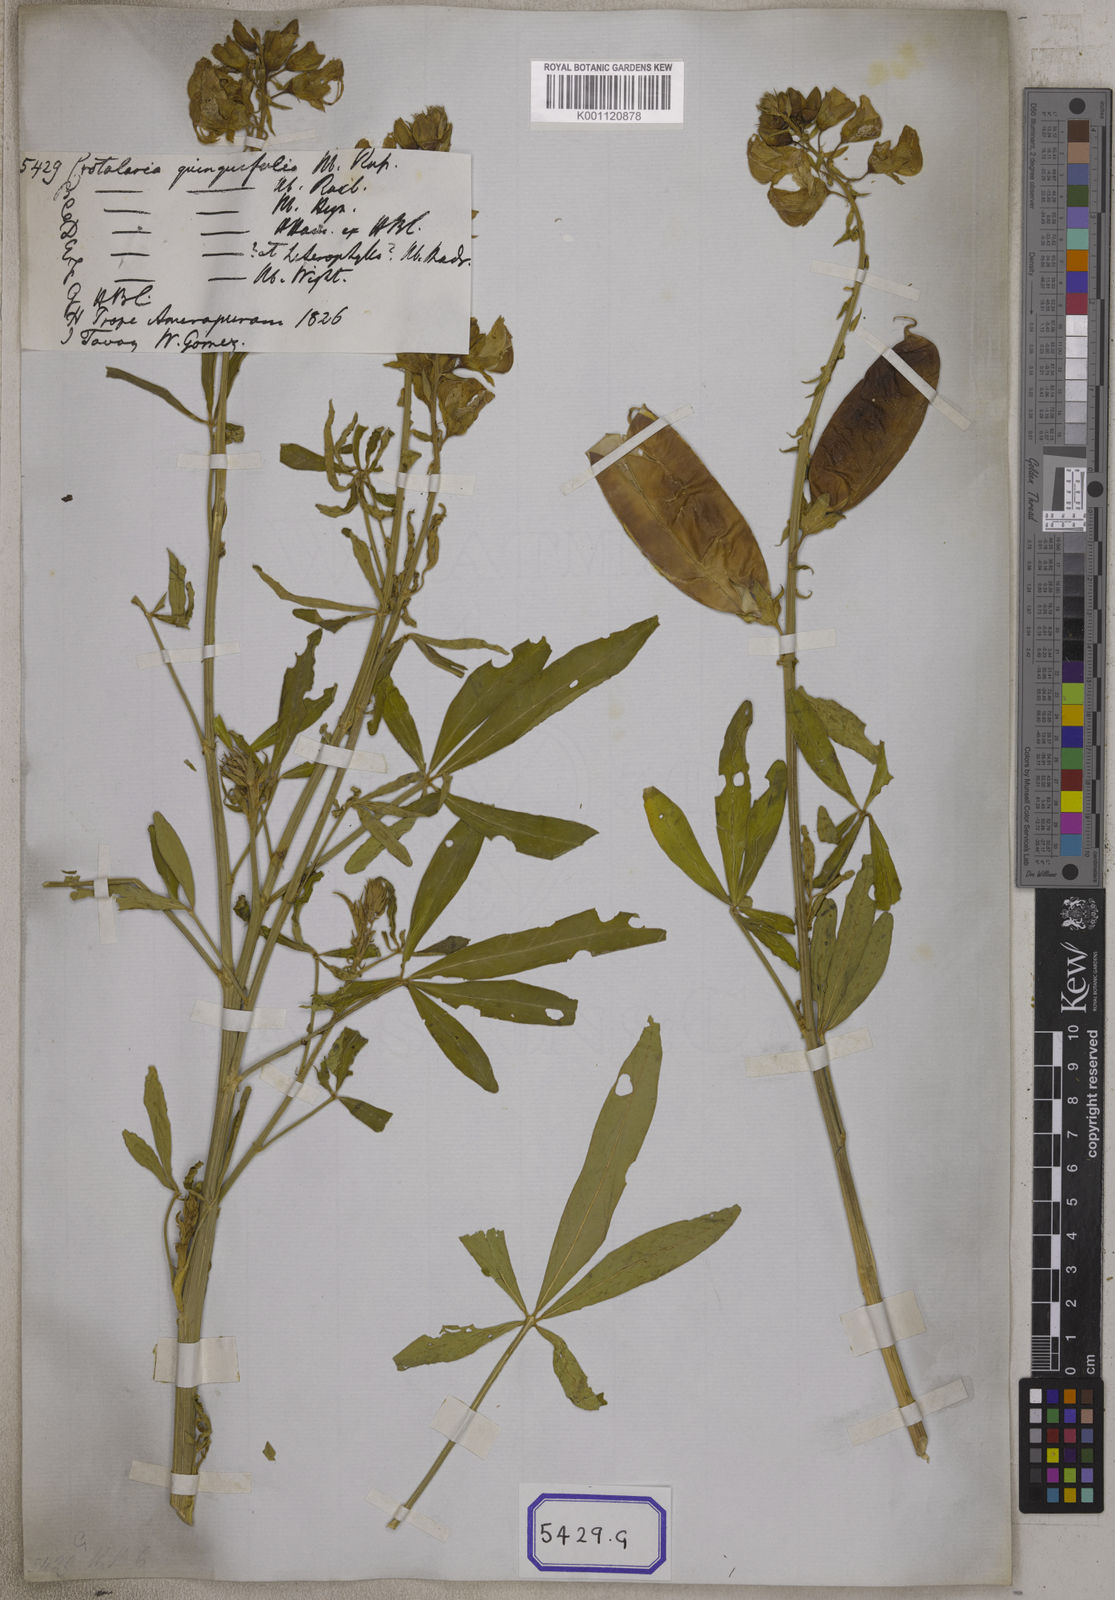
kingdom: Plantae
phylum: Tracheophyta
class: Magnoliopsida
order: Fabales
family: Fabaceae
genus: Crotalaria
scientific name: Crotalaria quinquefolia
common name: Five-leaf crotalaria
